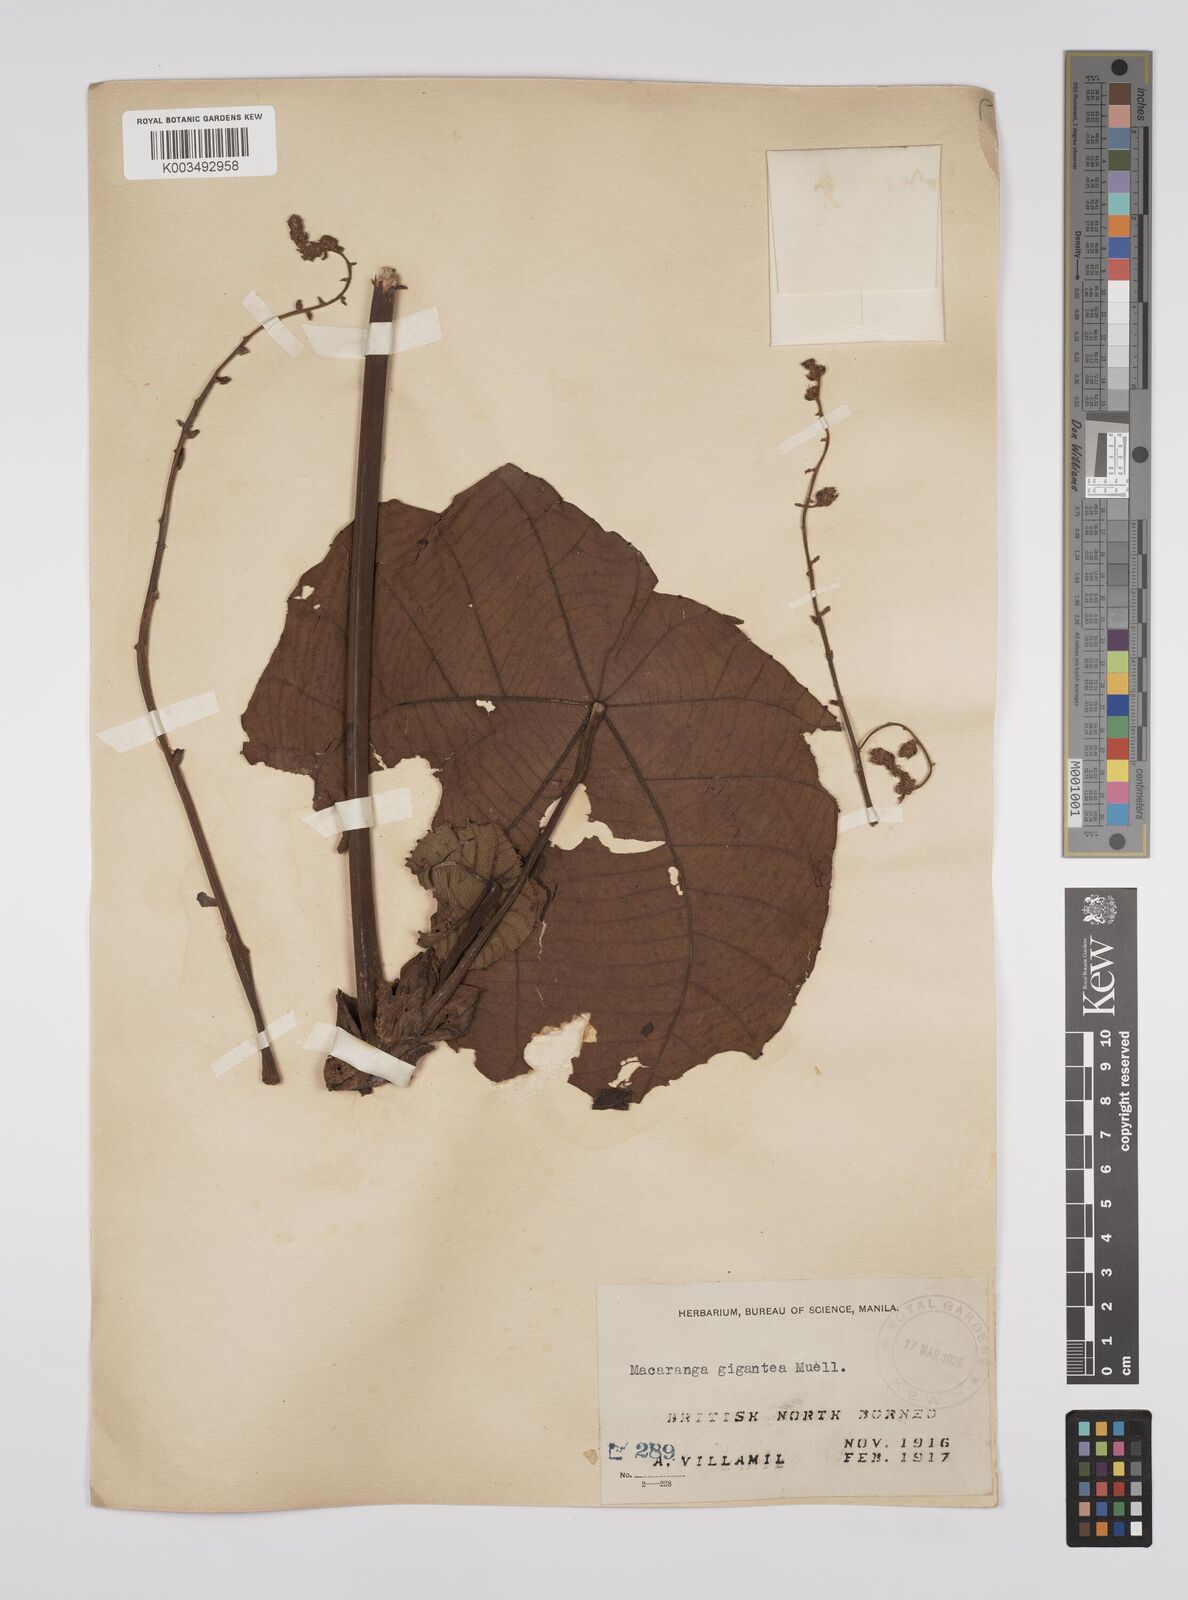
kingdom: Plantae
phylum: Tracheophyta
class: Magnoliopsida
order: Malpighiales
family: Euphorbiaceae
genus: Macaranga
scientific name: Macaranga gigantea
